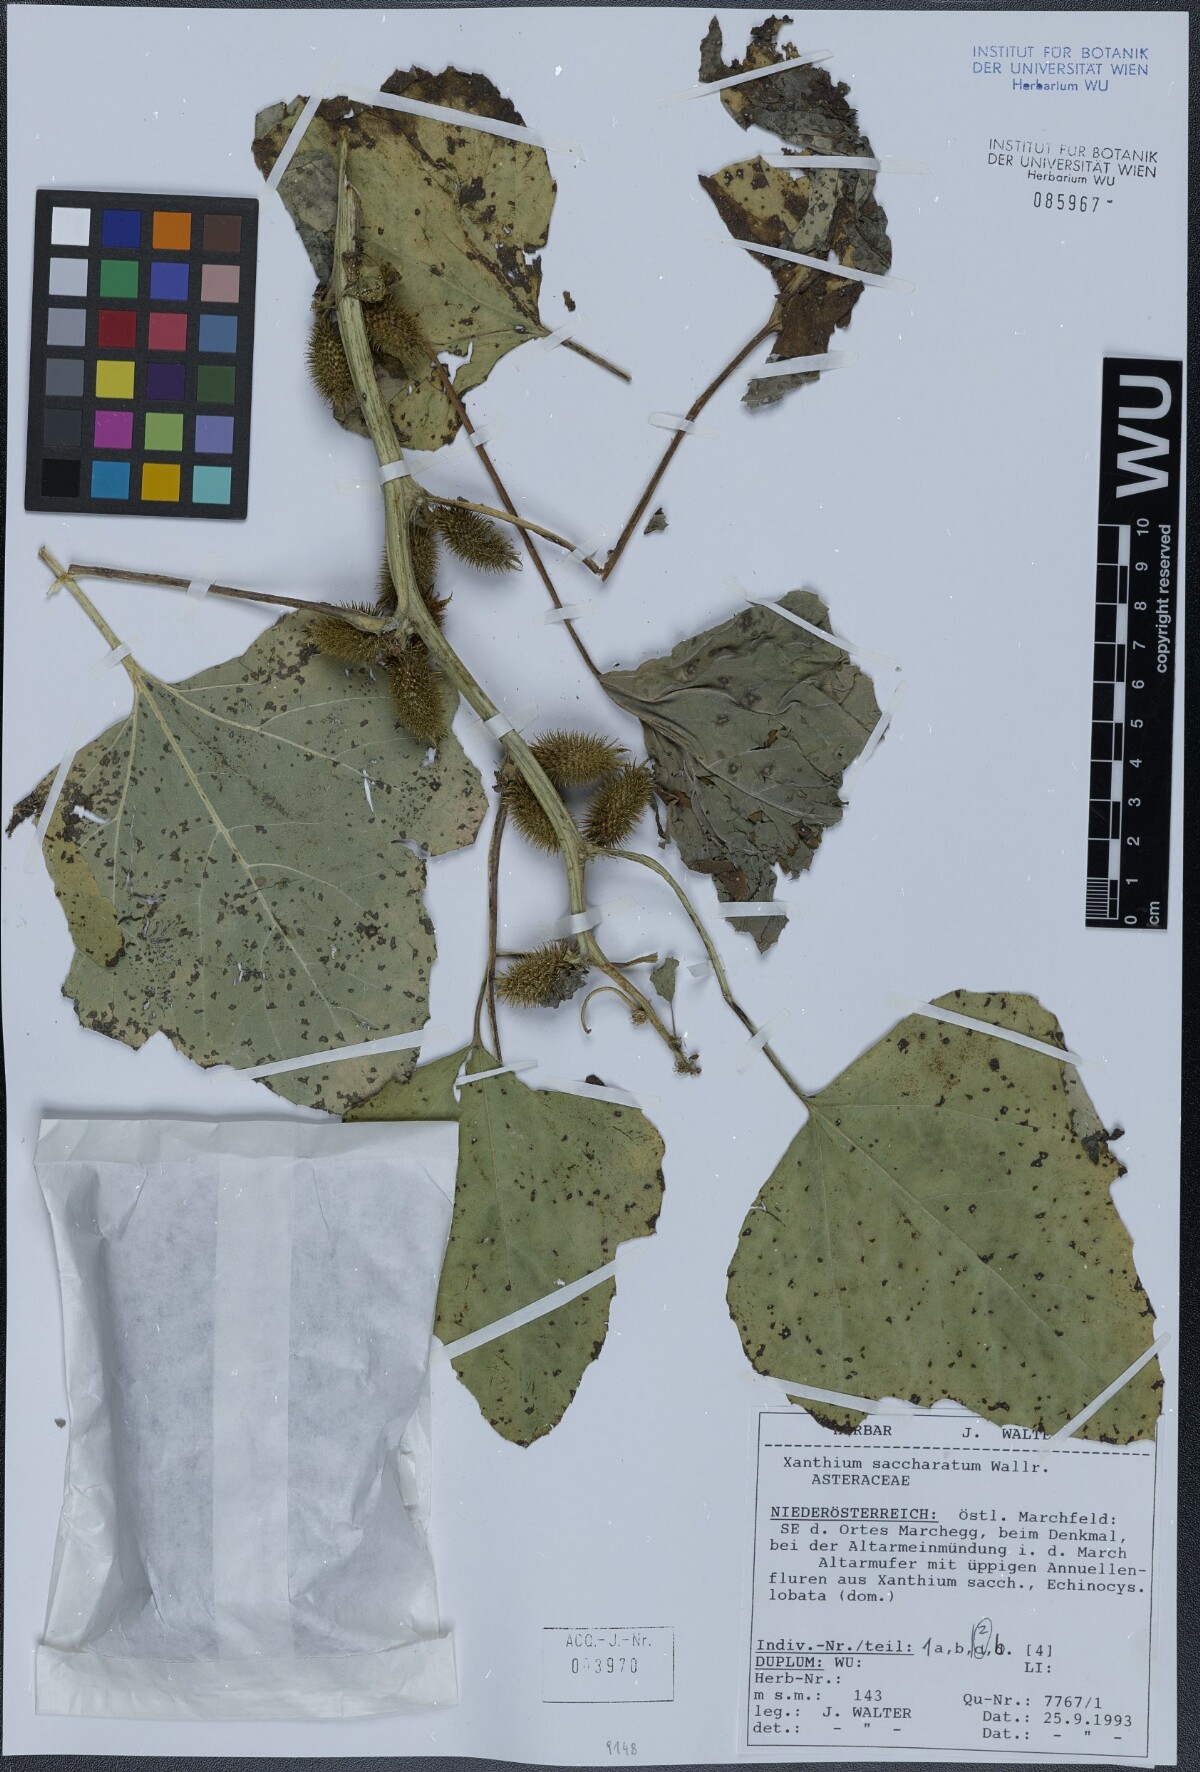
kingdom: Plantae
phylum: Tracheophyta
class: Magnoliopsida
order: Asterales
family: Asteraceae
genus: Xanthium
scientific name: Xanthium orientale
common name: Californian burr
